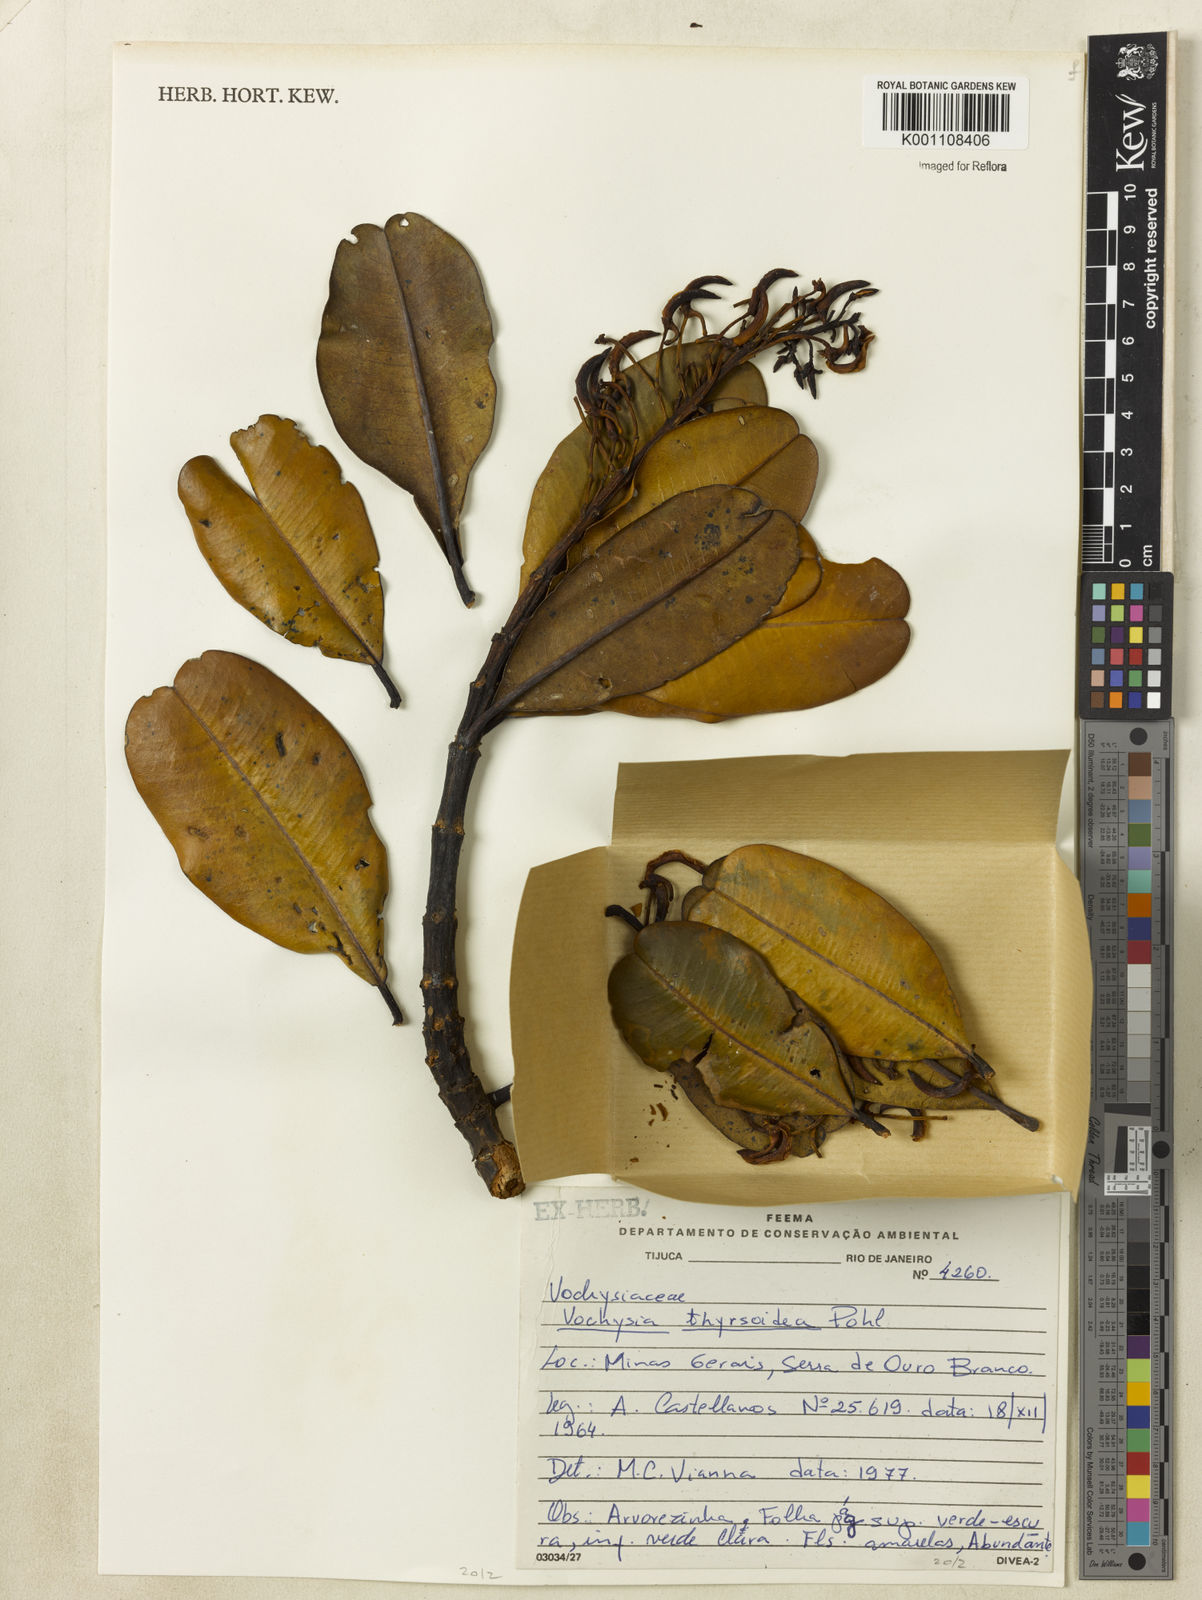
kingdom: Plantae
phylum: Tracheophyta
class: Magnoliopsida
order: Myrtales
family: Vochysiaceae
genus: Vochysia
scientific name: Vochysia thyrsoidea
